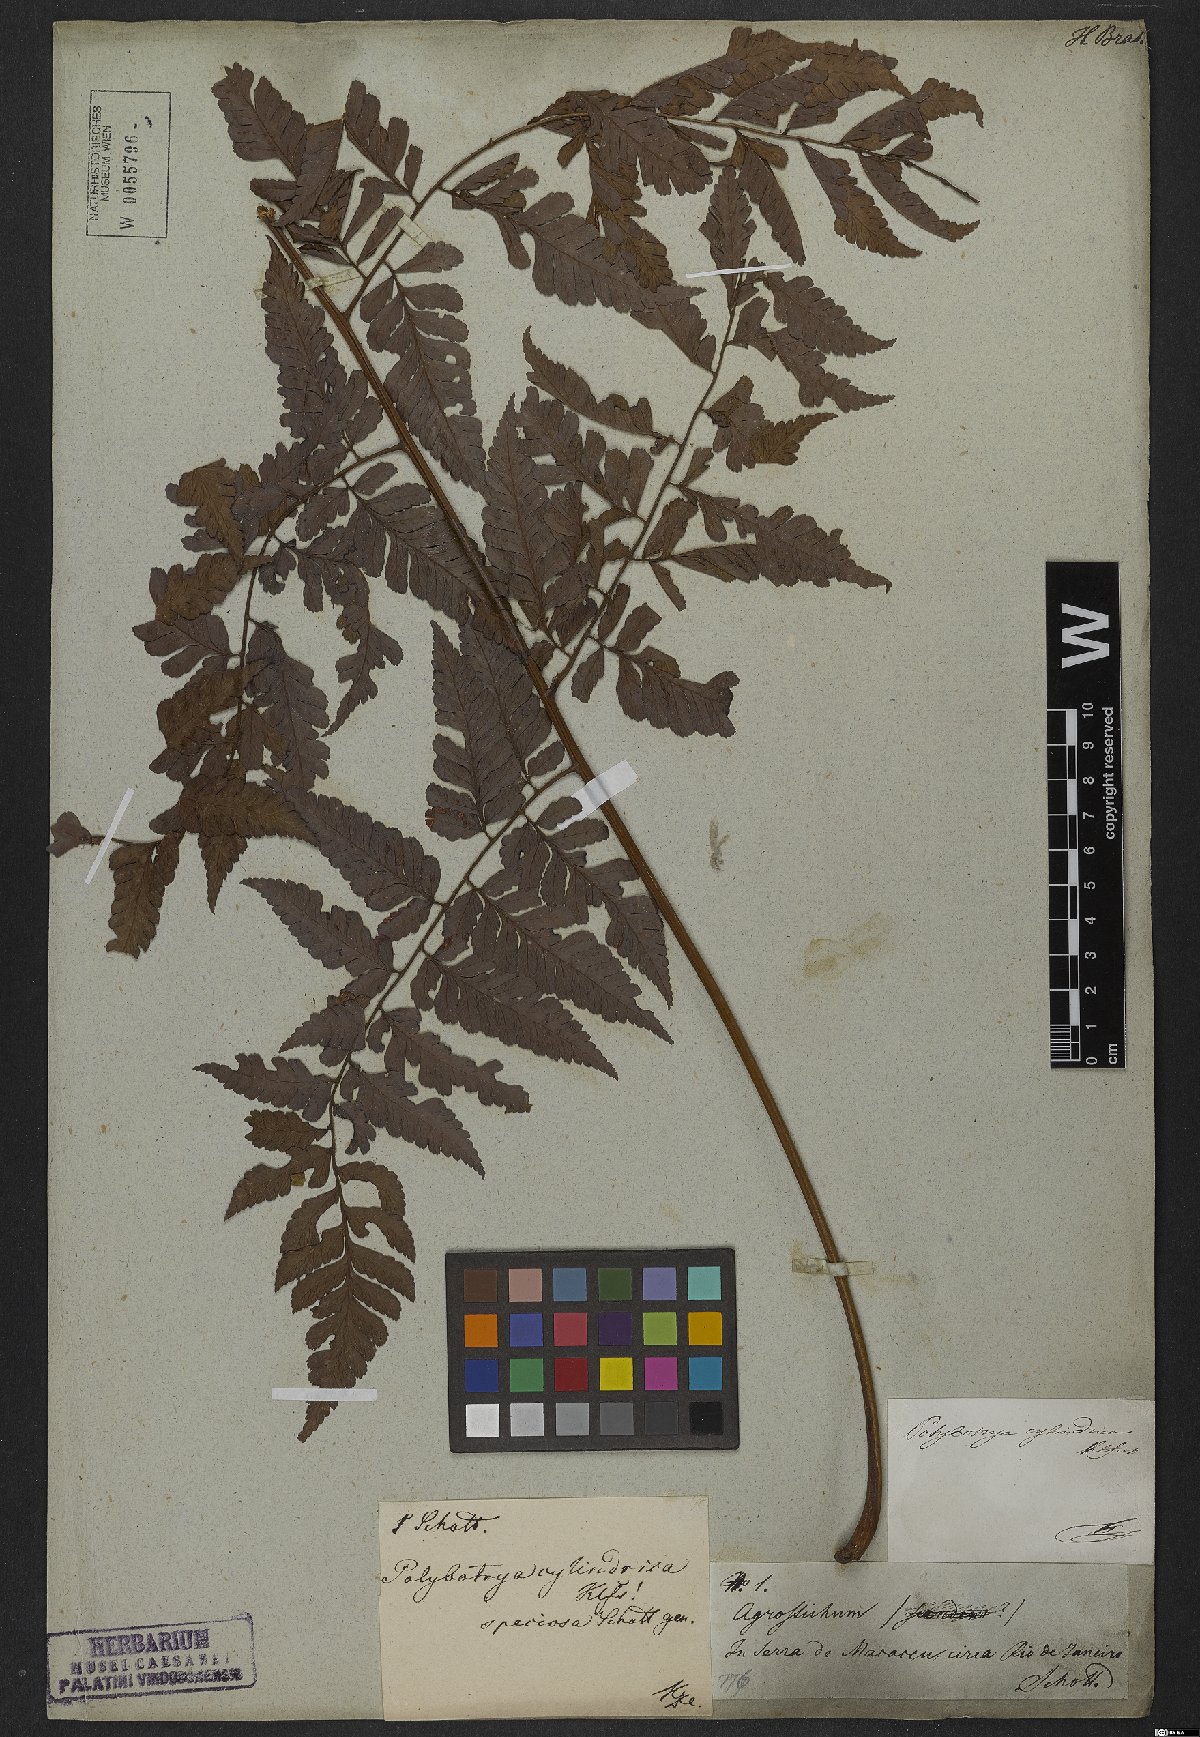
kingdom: Plantae
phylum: Tracheophyta
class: Polypodiopsida
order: Polypodiales
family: Dryopteridaceae
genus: Polybotrya
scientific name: Polybotrya osmundacea
